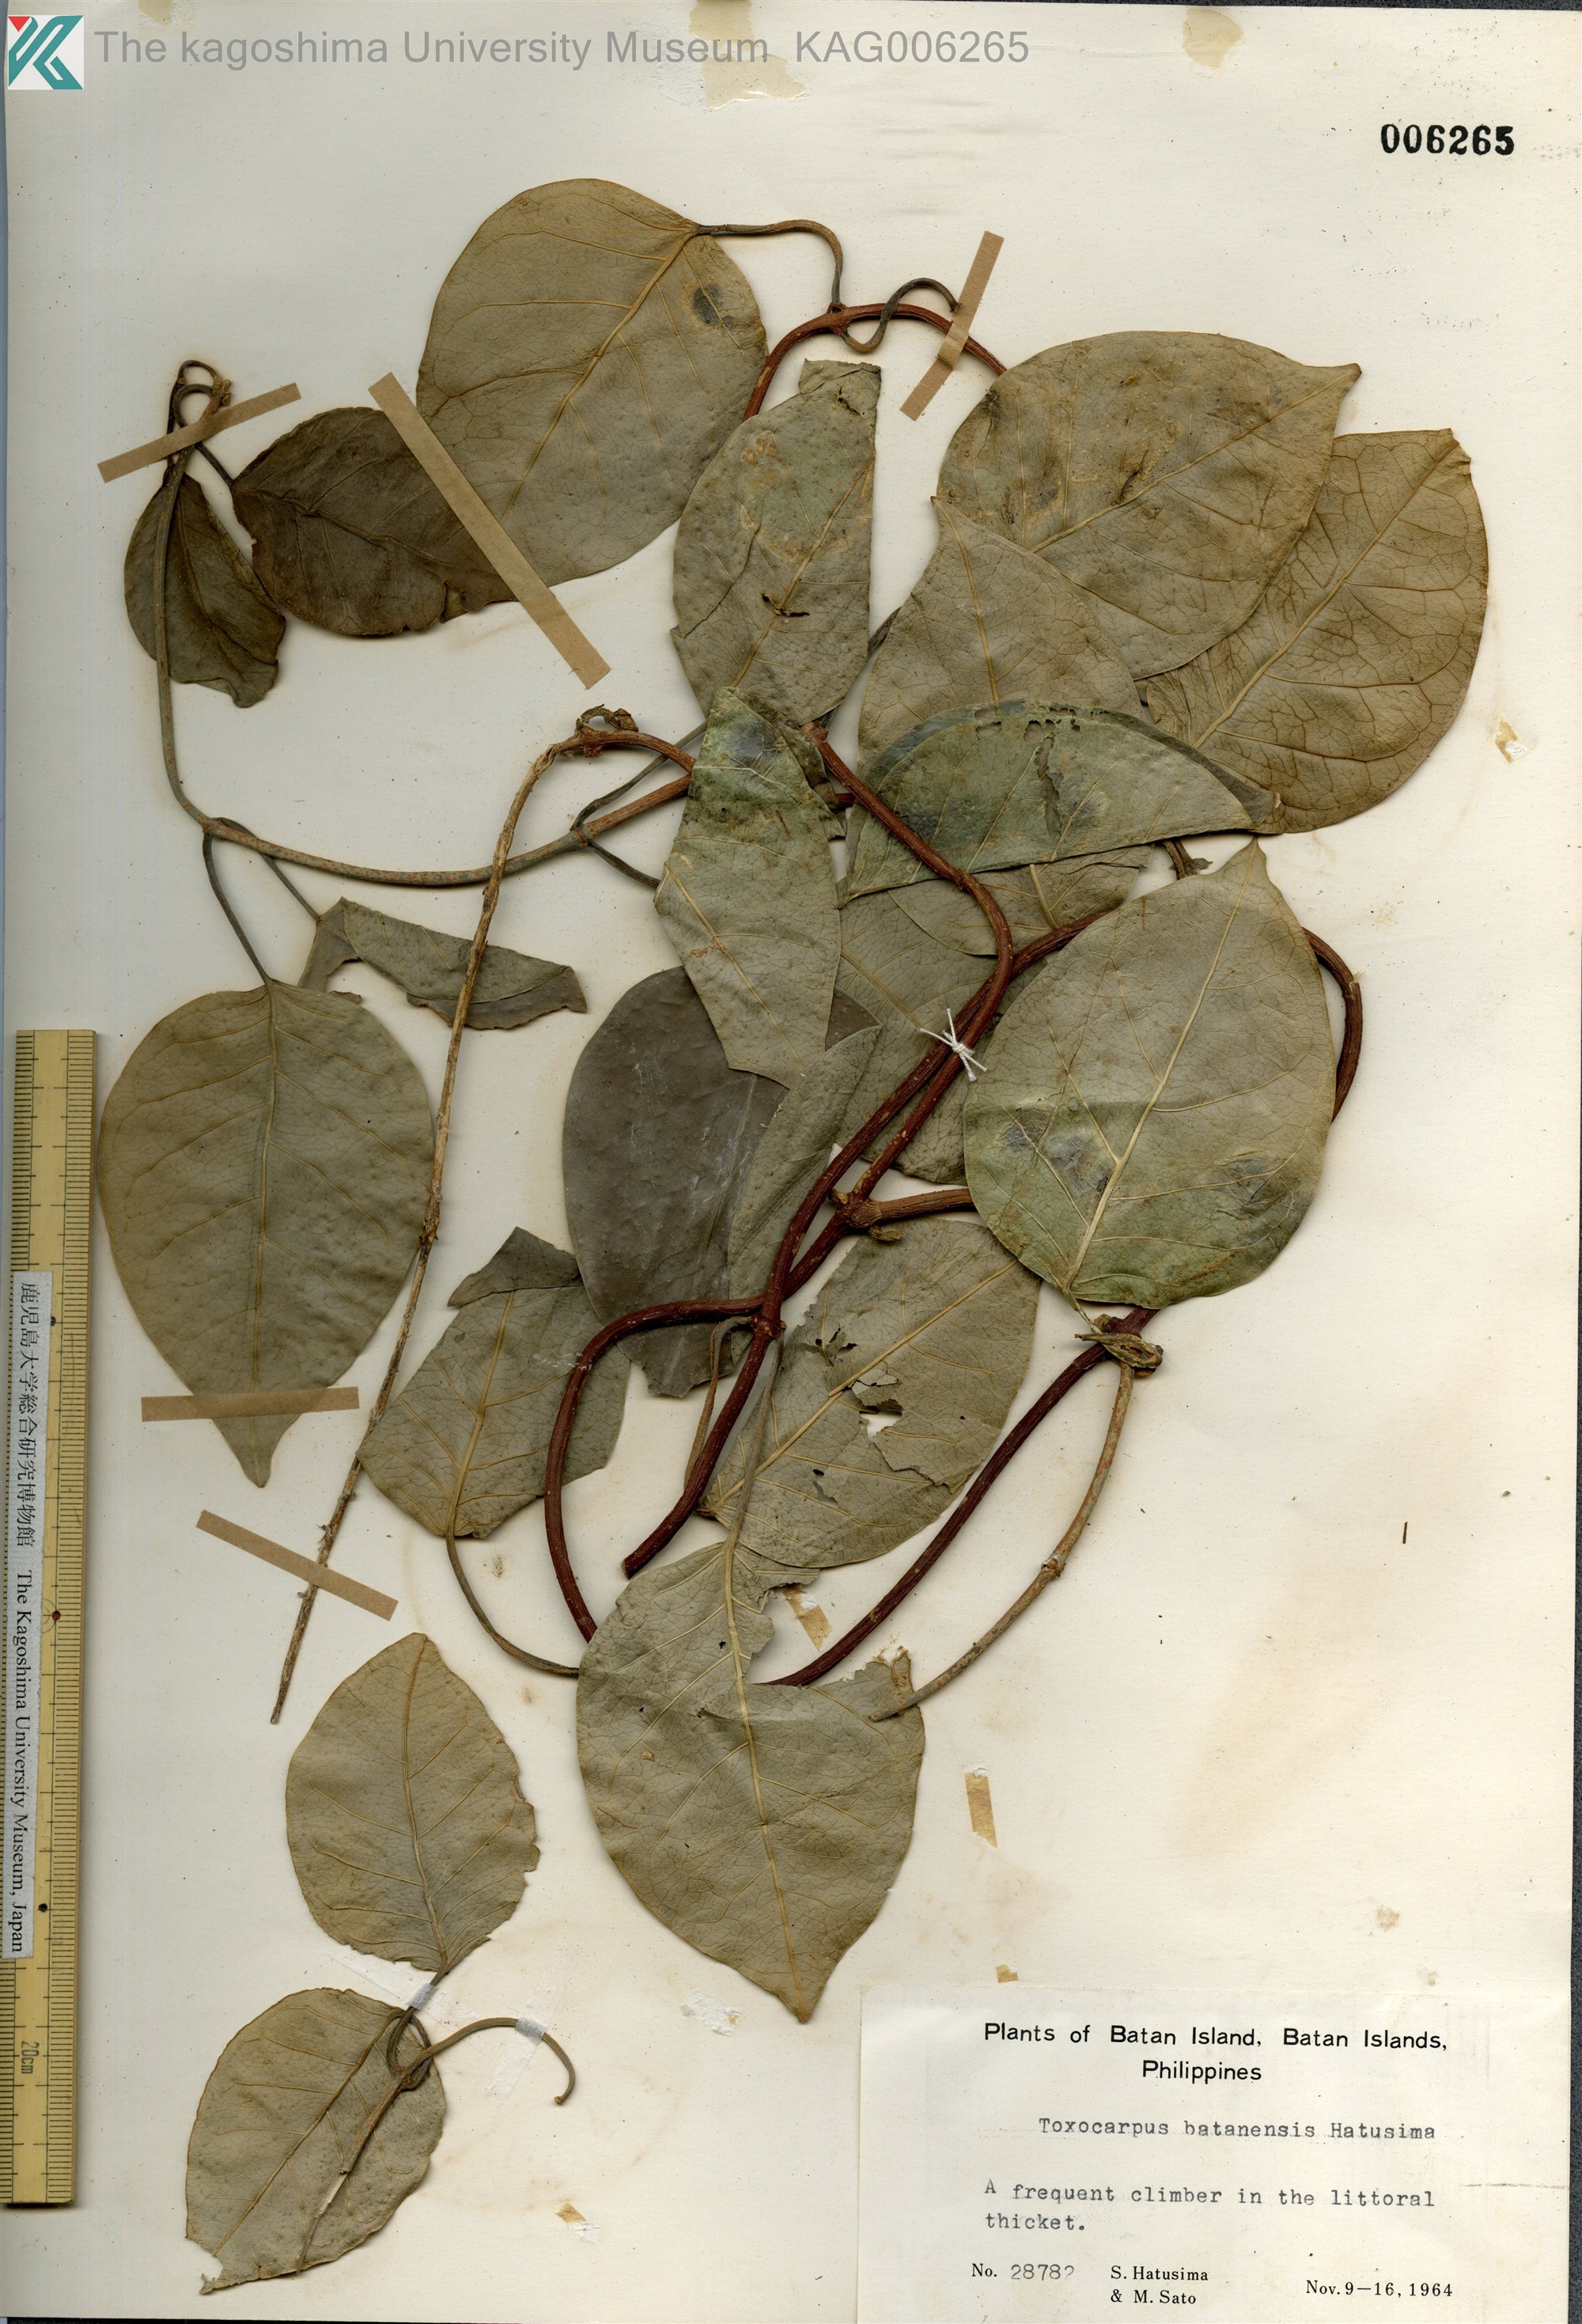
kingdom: Plantae
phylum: Tracheophyta
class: Magnoliopsida
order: Gentianales
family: Apocynaceae
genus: Toxocarpus
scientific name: Toxocarpus batanensis
